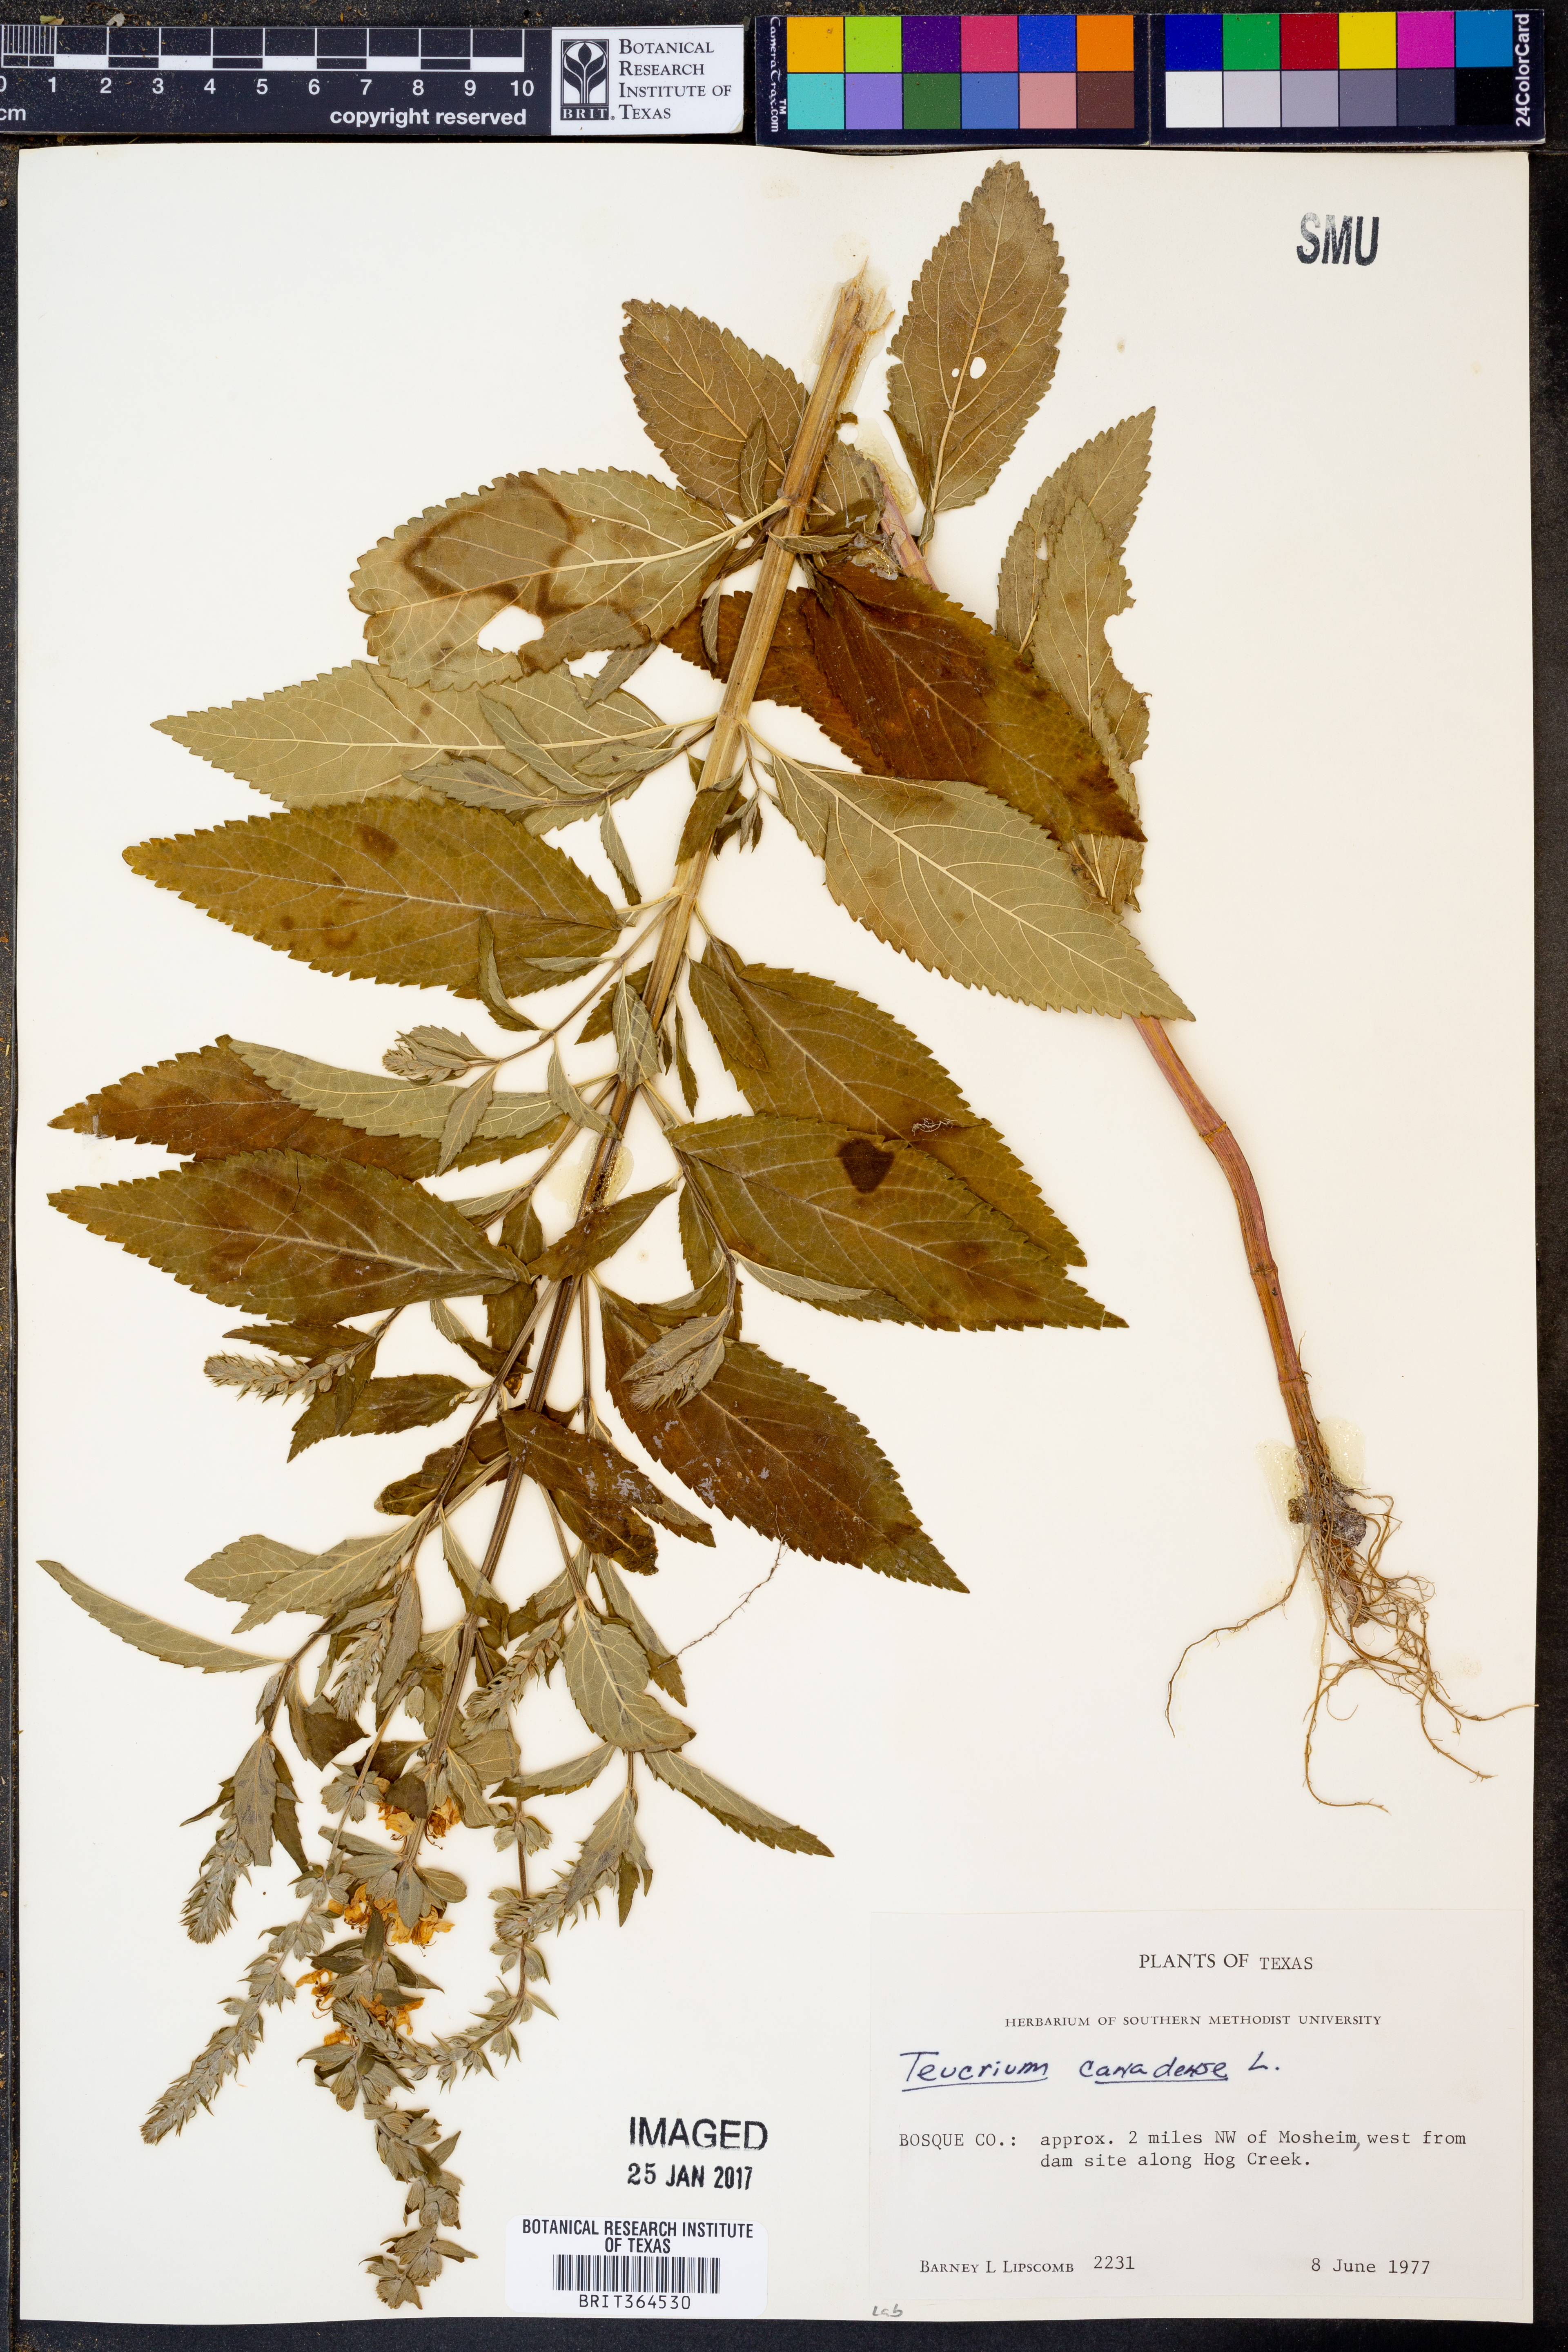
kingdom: Plantae
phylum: Tracheophyta
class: Magnoliopsida
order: Lamiales
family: Lamiaceae
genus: Teucrium
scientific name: Teucrium canadense
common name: American germander
